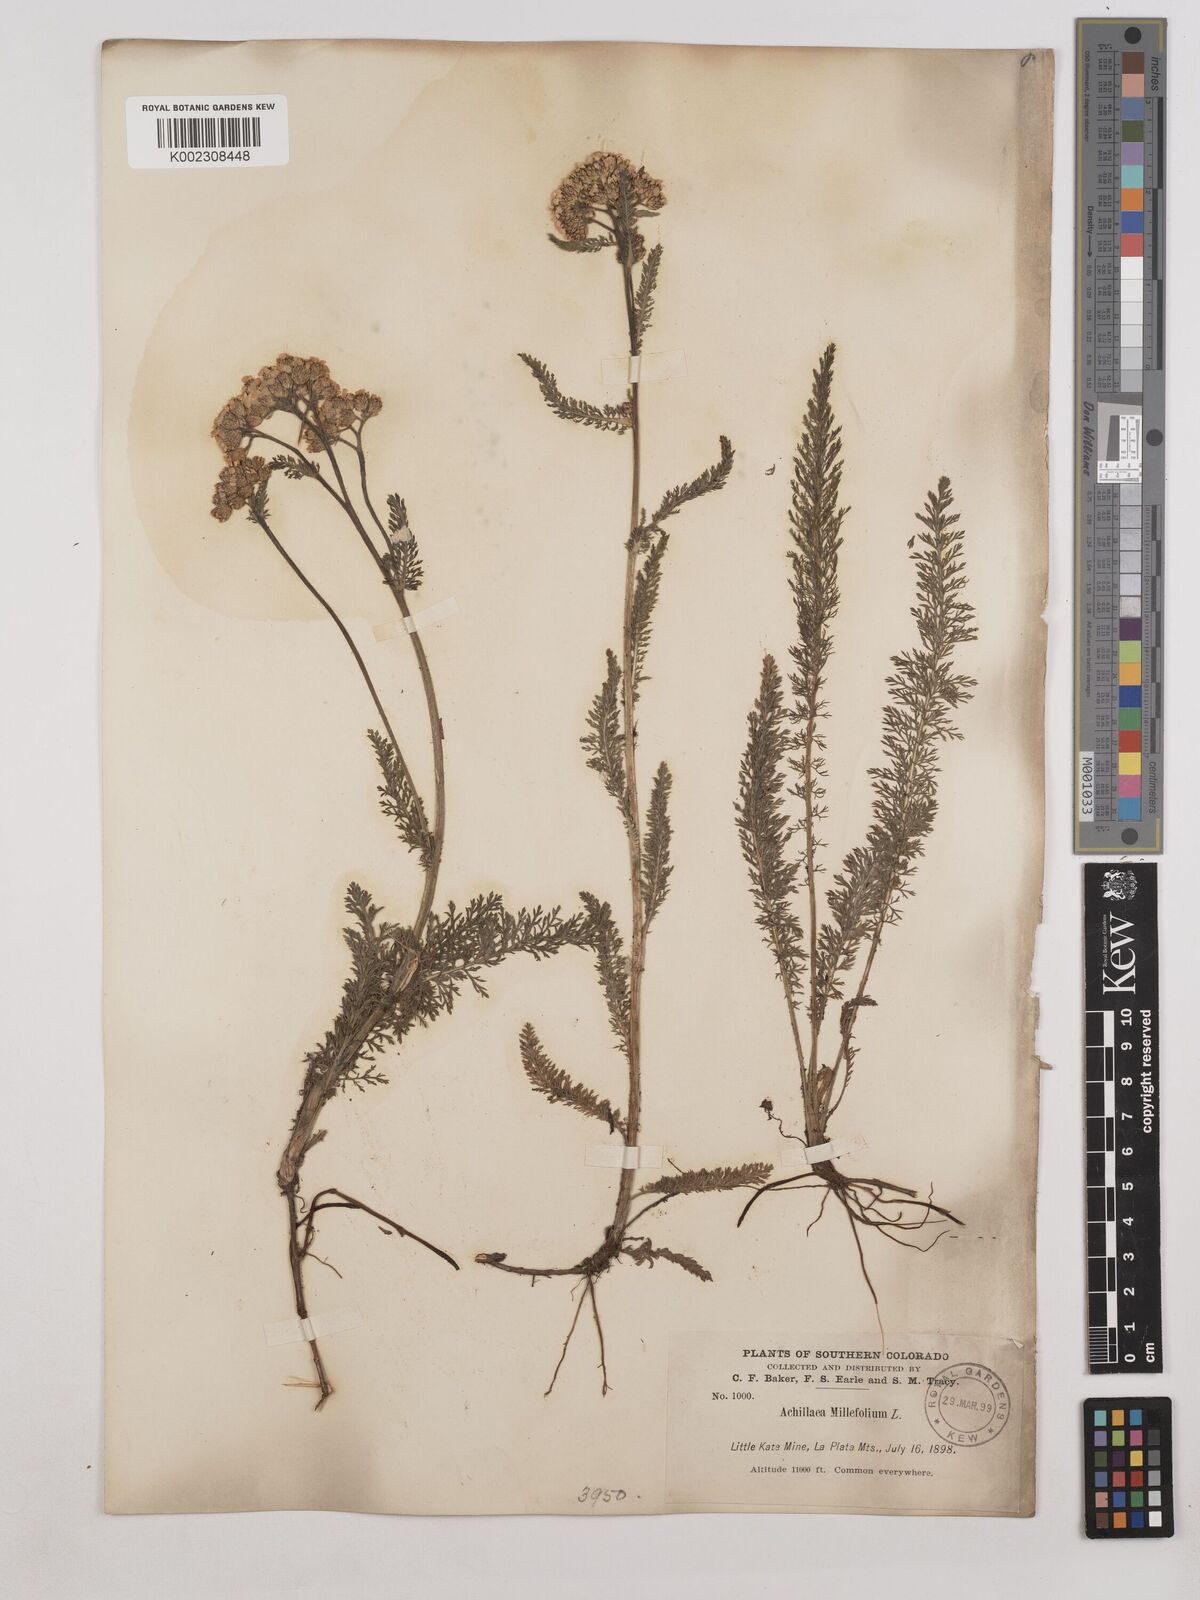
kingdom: Plantae
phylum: Tracheophyta
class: Magnoliopsida
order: Asterales
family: Asteraceae
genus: Achillea
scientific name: Achillea millefolium
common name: Yarrow
